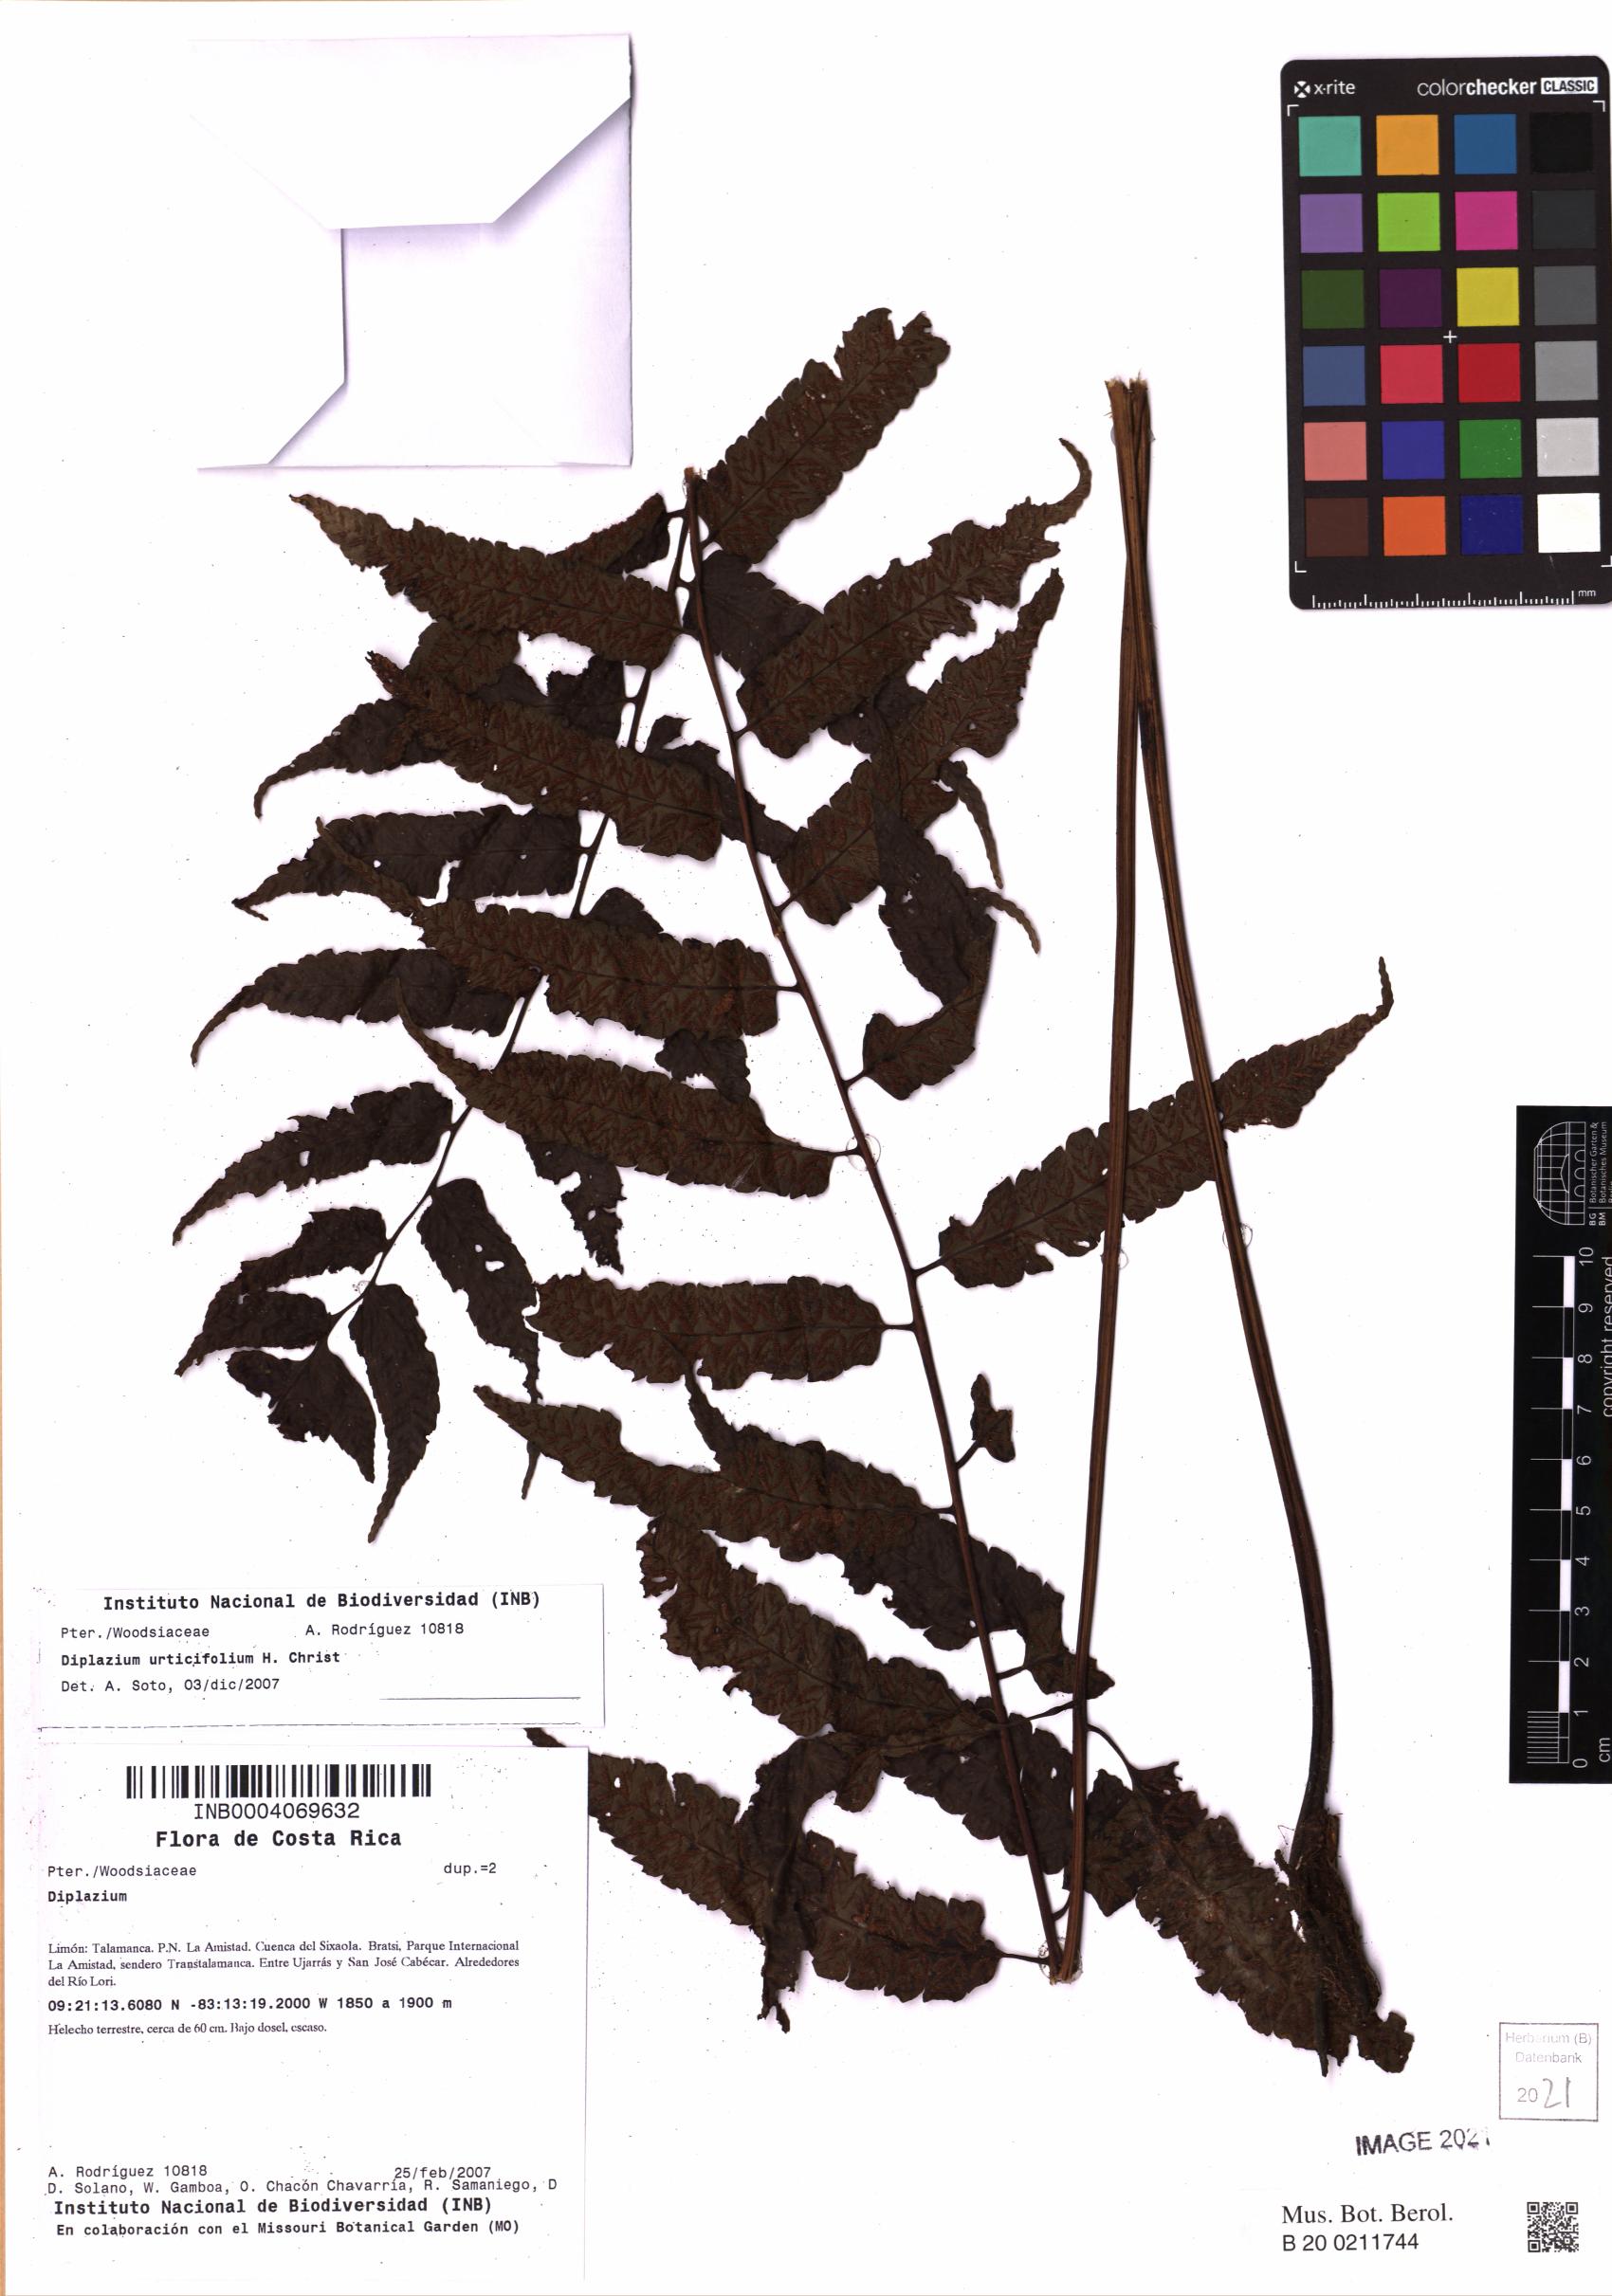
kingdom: Plantae
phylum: Tracheophyta
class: Polypodiopsida
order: Polypodiales
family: Athyriaceae
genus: Diplazium
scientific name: Diplazium urticifolium
